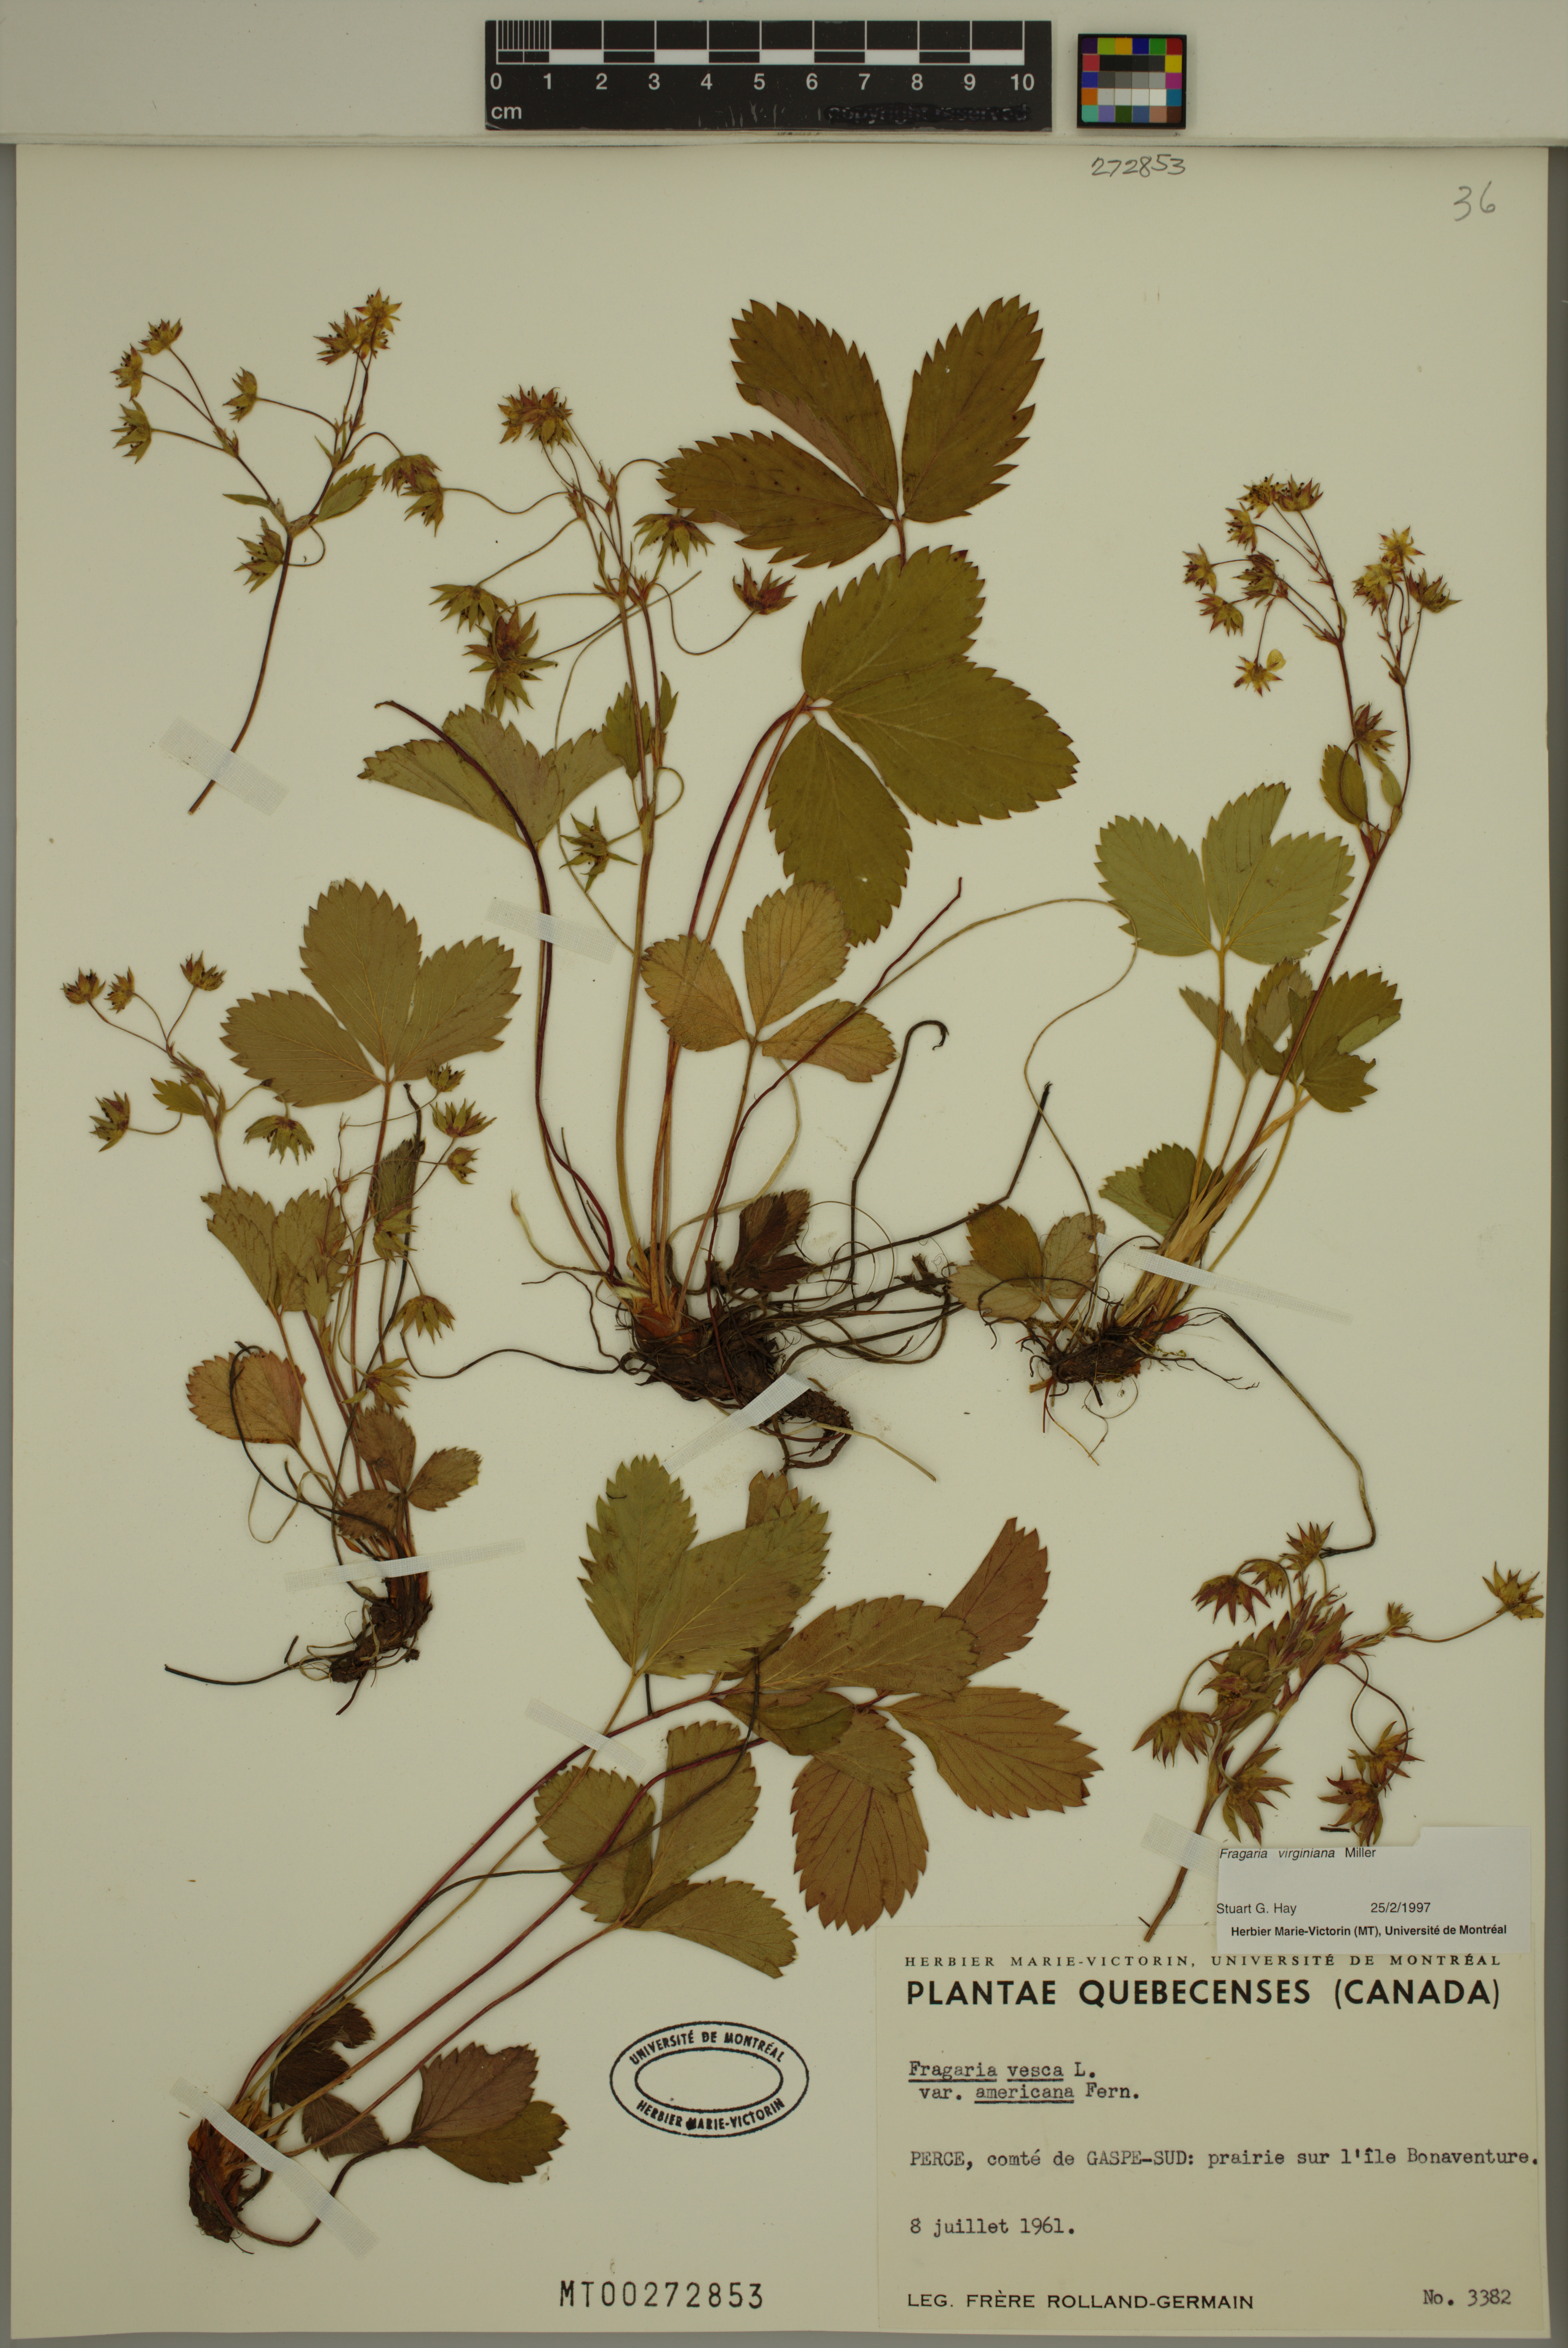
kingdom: Plantae
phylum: Tracheophyta
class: Magnoliopsida
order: Rosales
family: Rosaceae
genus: Fragaria
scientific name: Fragaria virginiana
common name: Thickleaved wild strawberry
